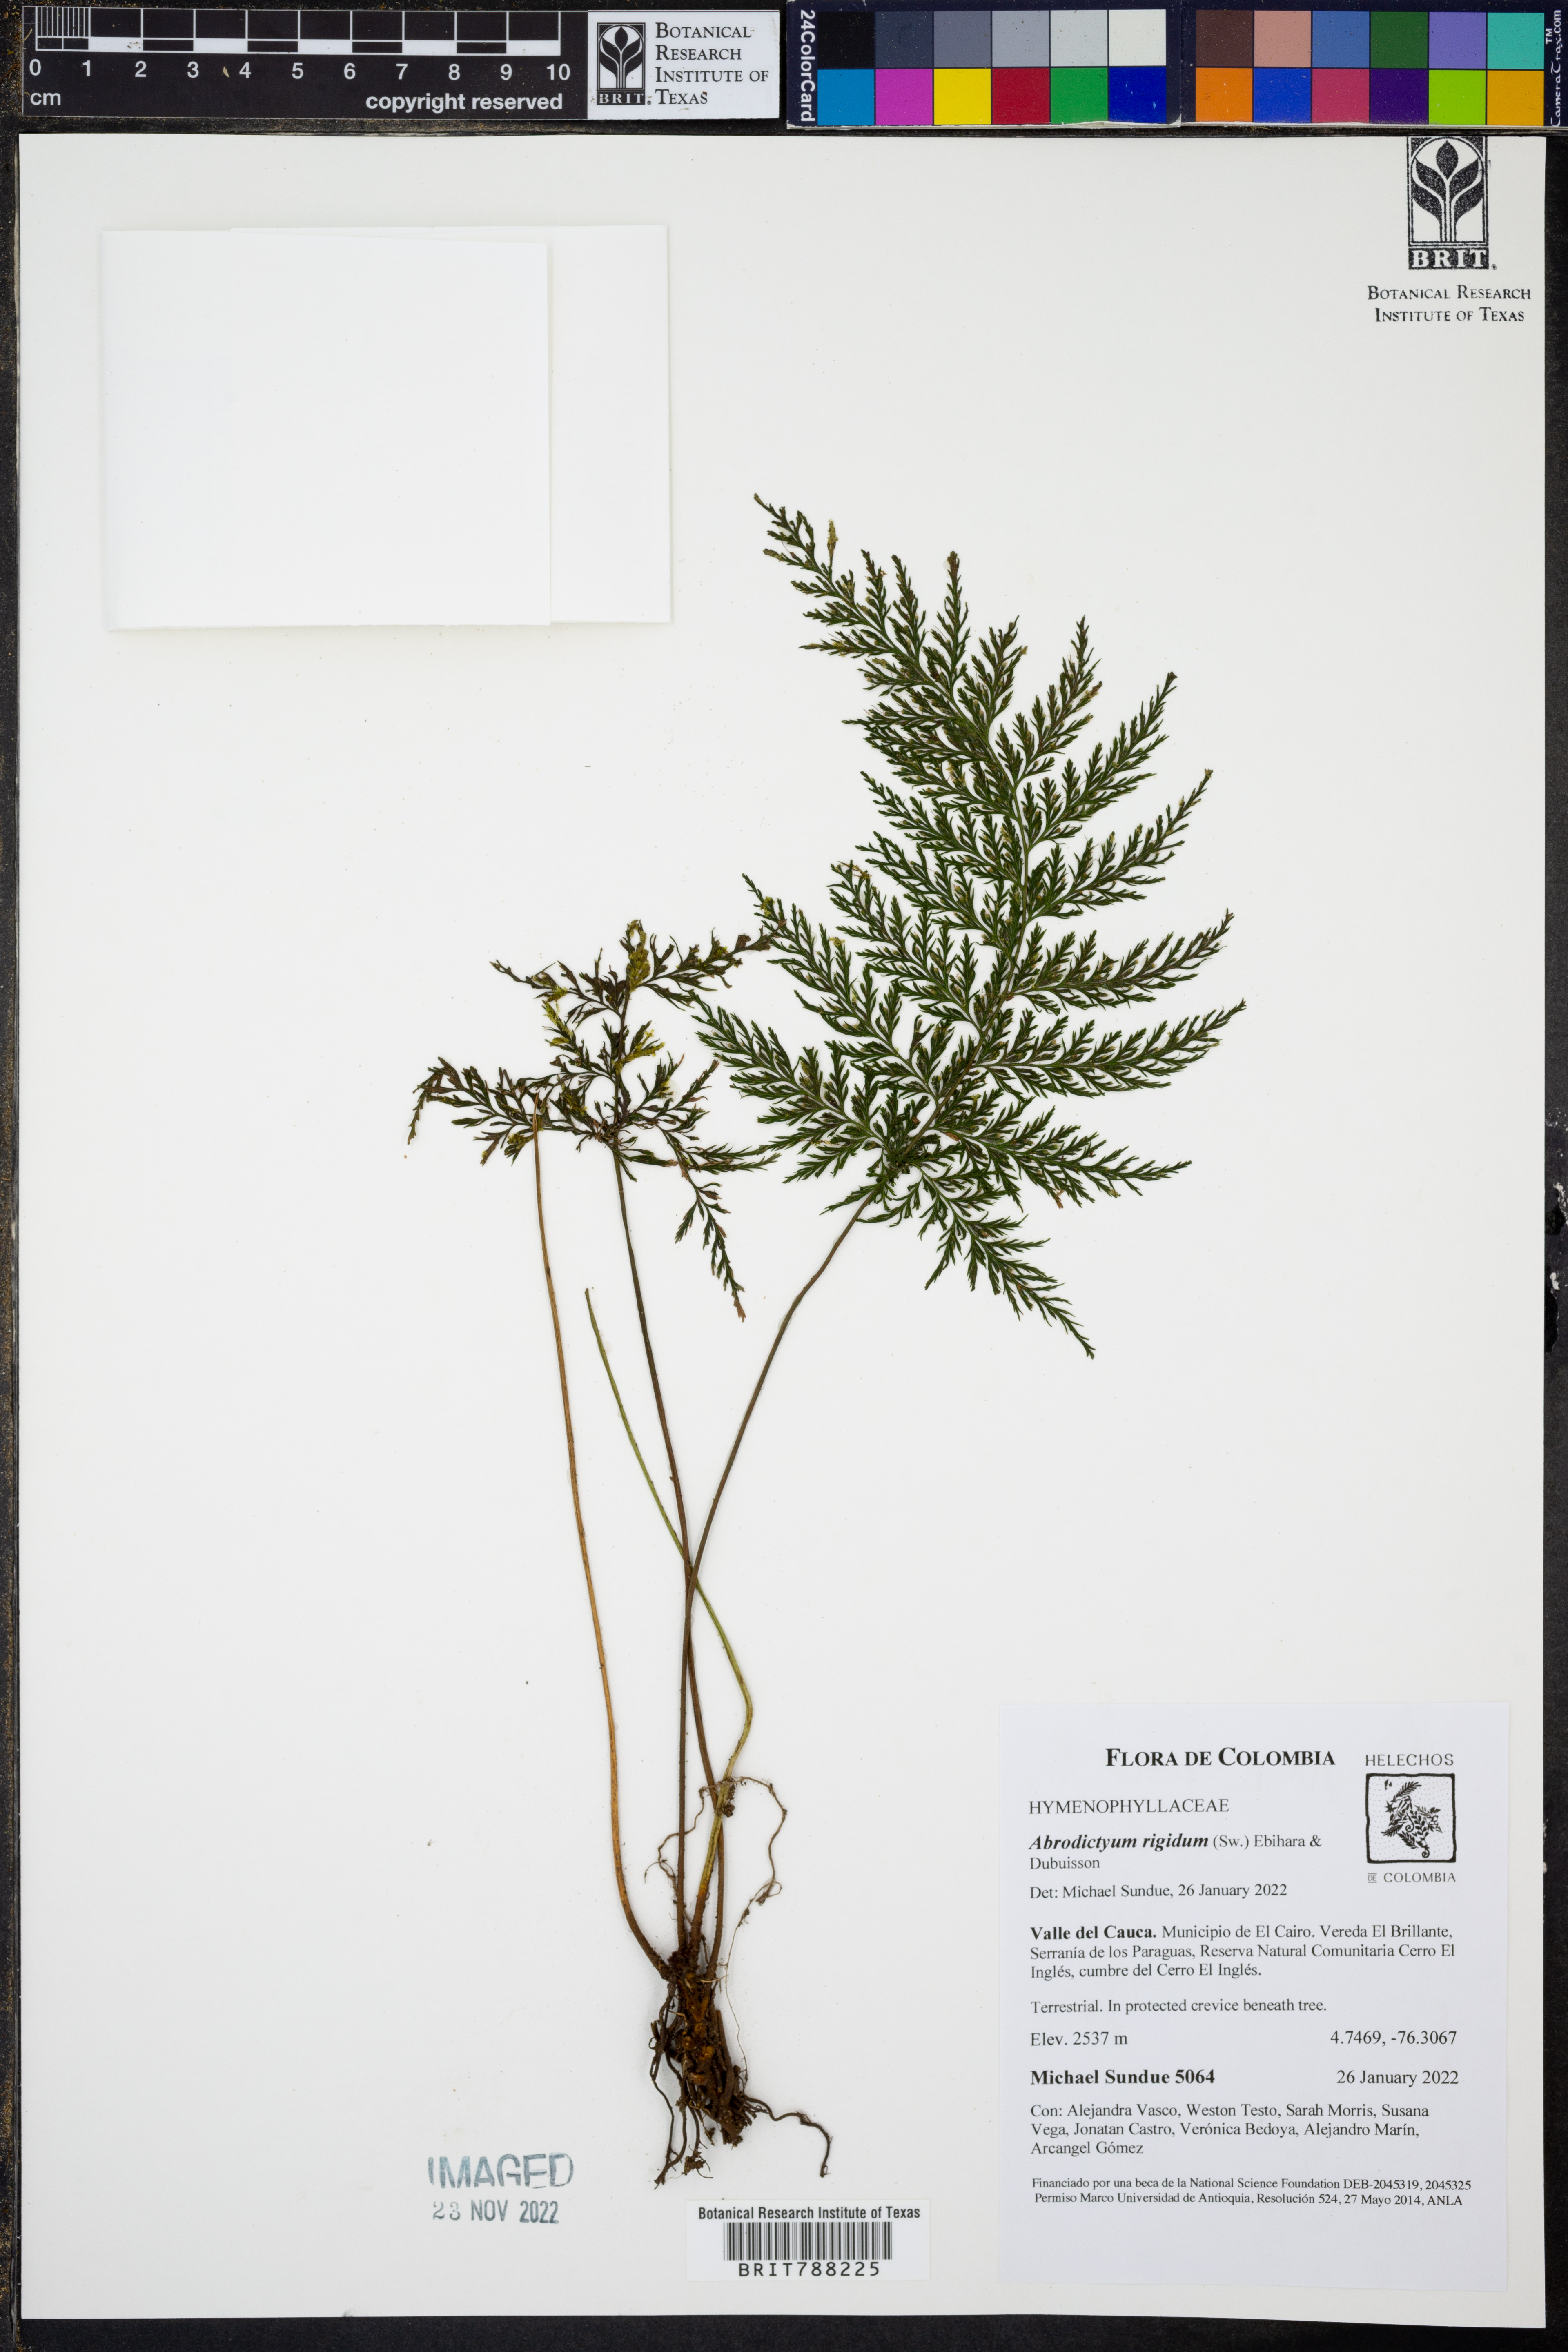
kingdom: Plantae
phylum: Tracheophyta
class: Polypodiopsida
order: Hymenophyllales
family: Hymenophyllaceae
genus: Abrodictyum
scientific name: Abrodictyum rigidum
